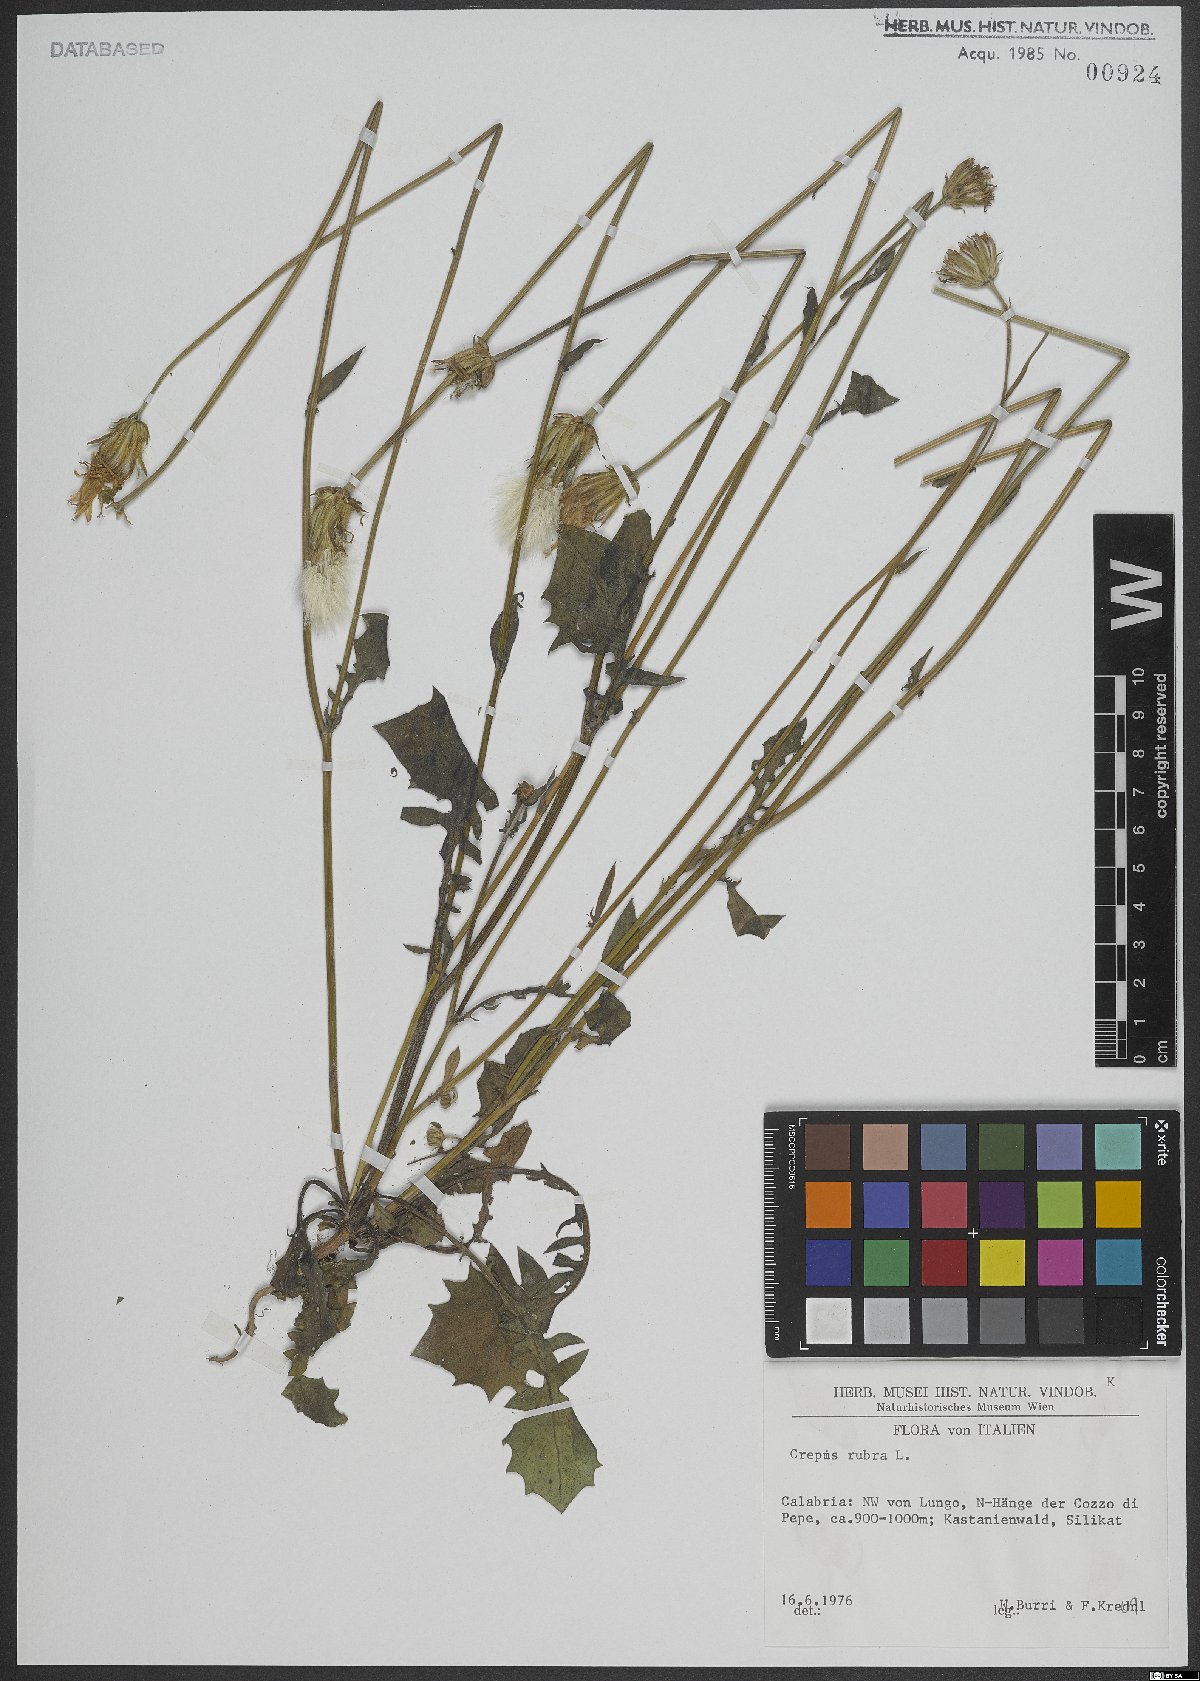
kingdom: Plantae
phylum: Tracheophyta
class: Magnoliopsida
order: Asterales
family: Asteraceae
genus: Crepis
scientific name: Crepis rubra
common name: Pink hawk's-beard
